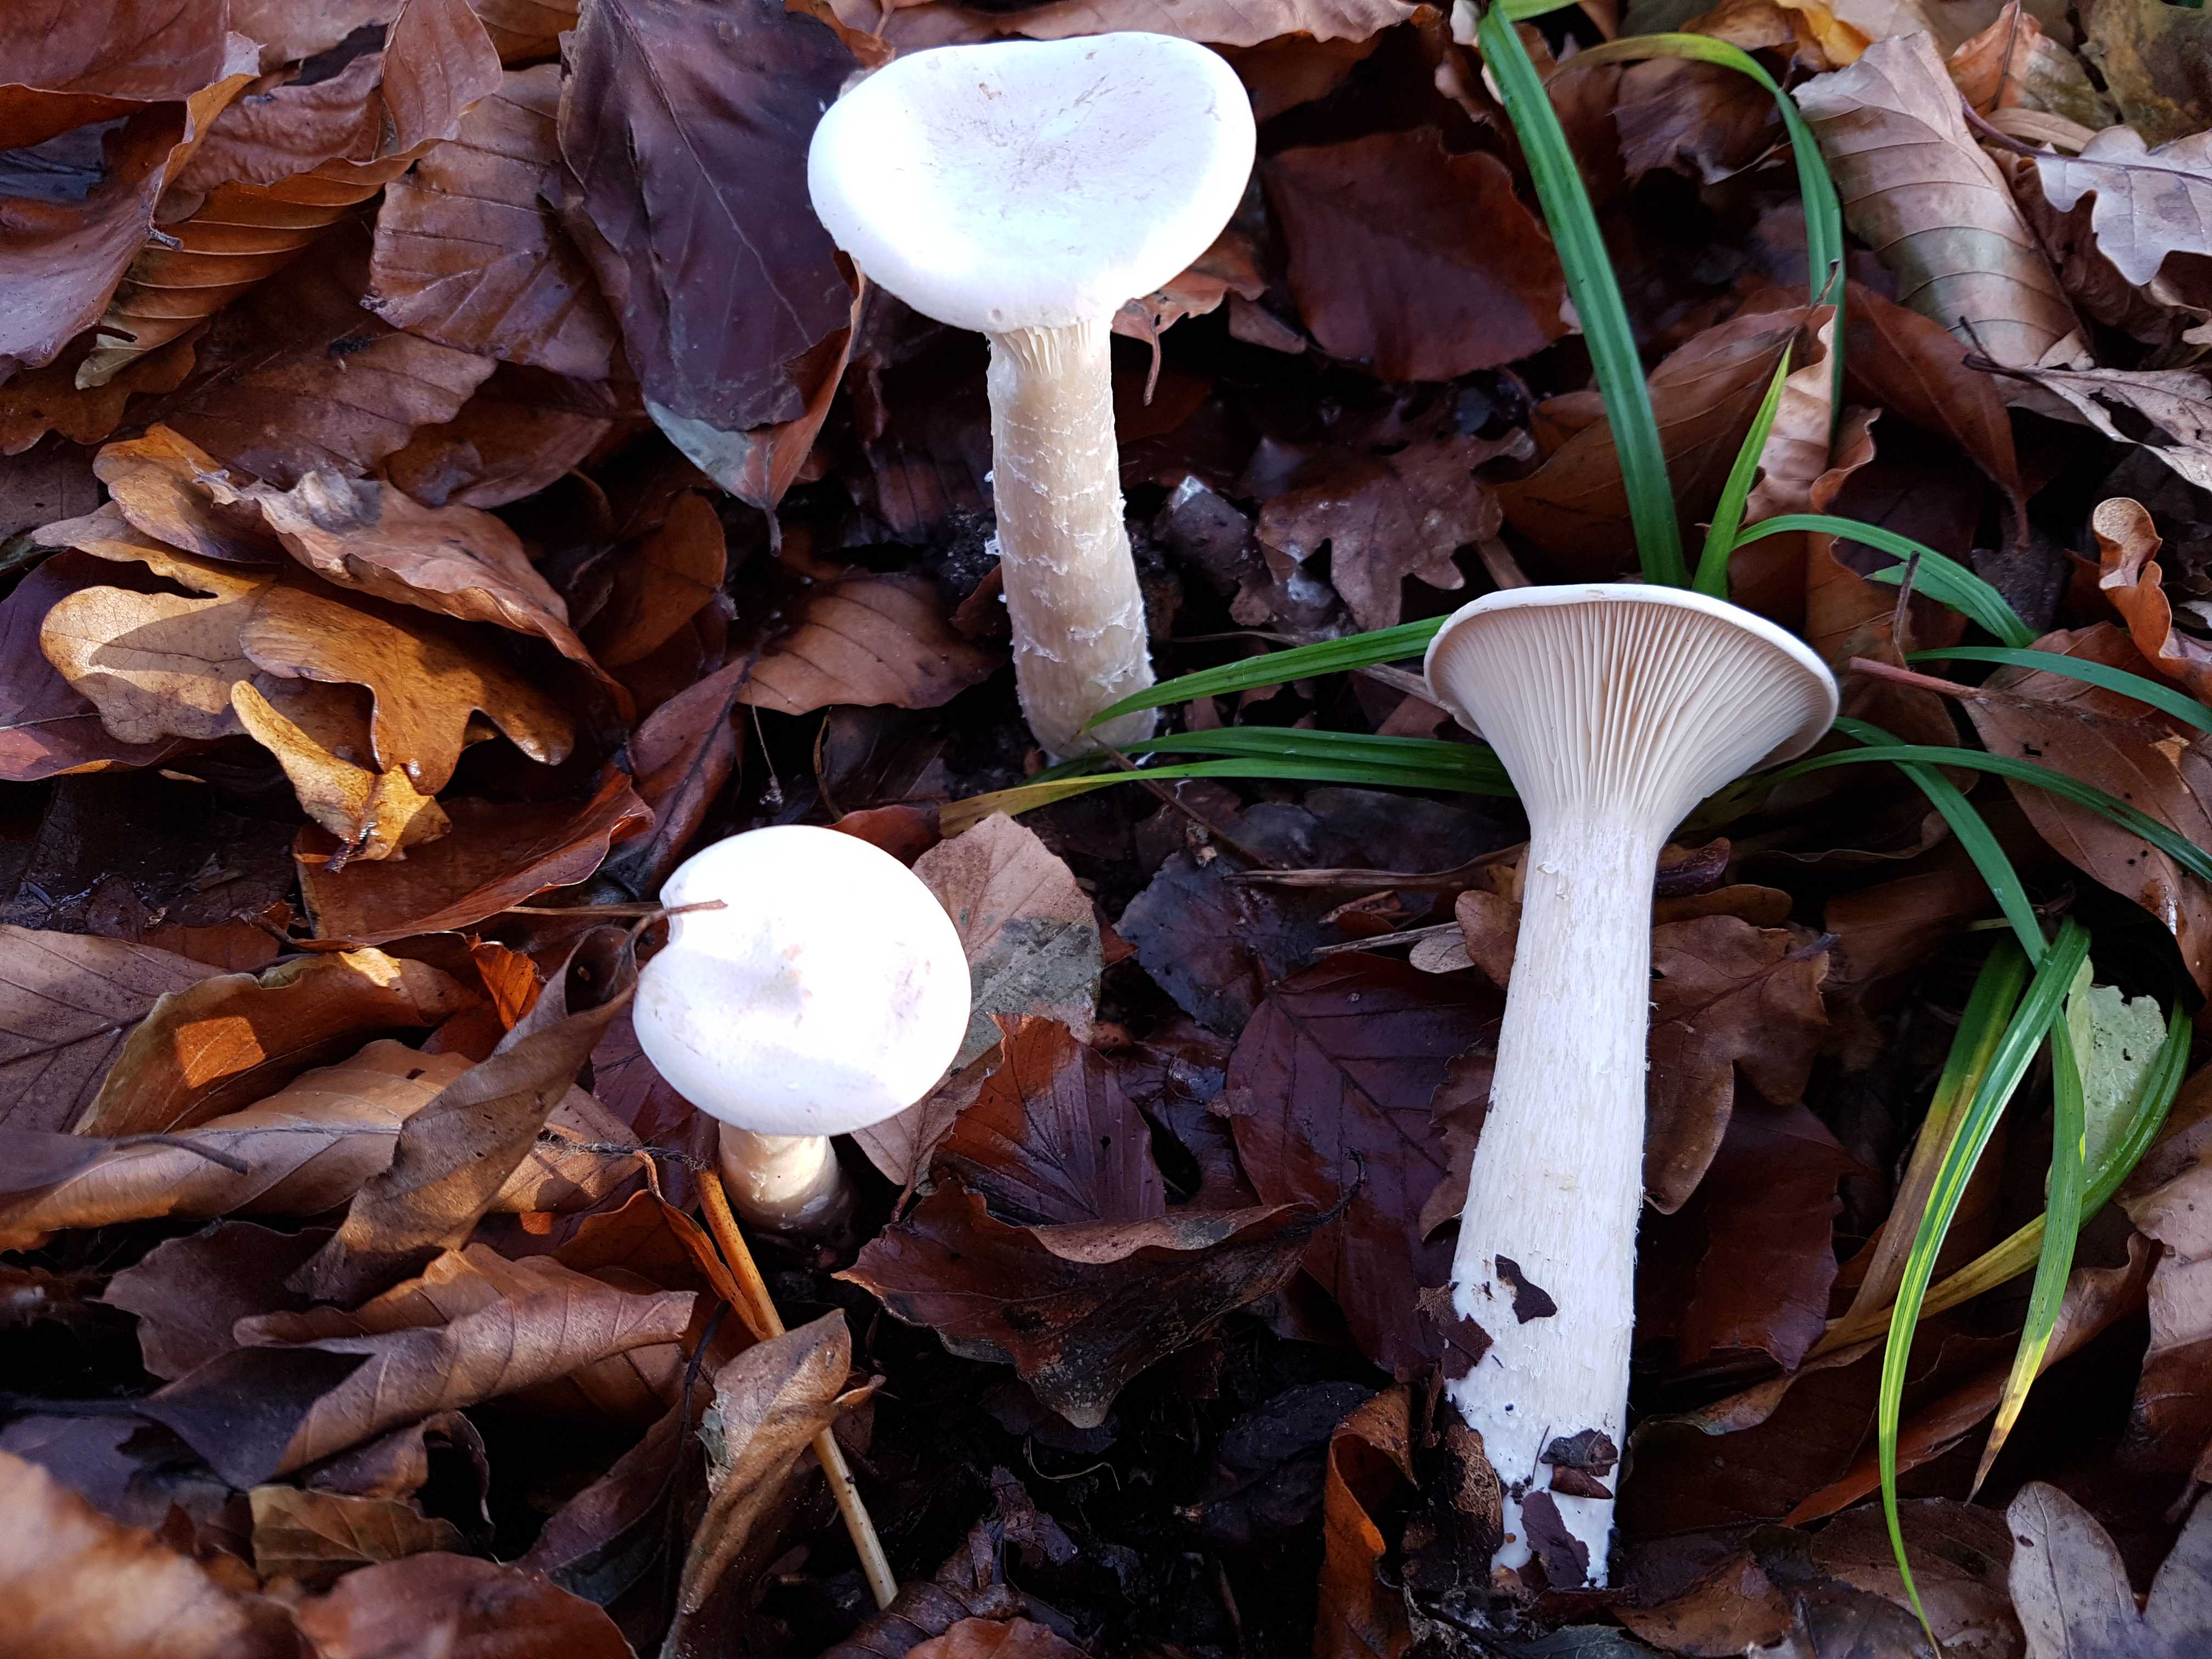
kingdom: Fungi
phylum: Basidiomycota
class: Agaricomycetes
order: Agaricales
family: Tricholomataceae
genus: Infundibulicybe
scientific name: Infundibulicybe geotropa
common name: stor tragthat
